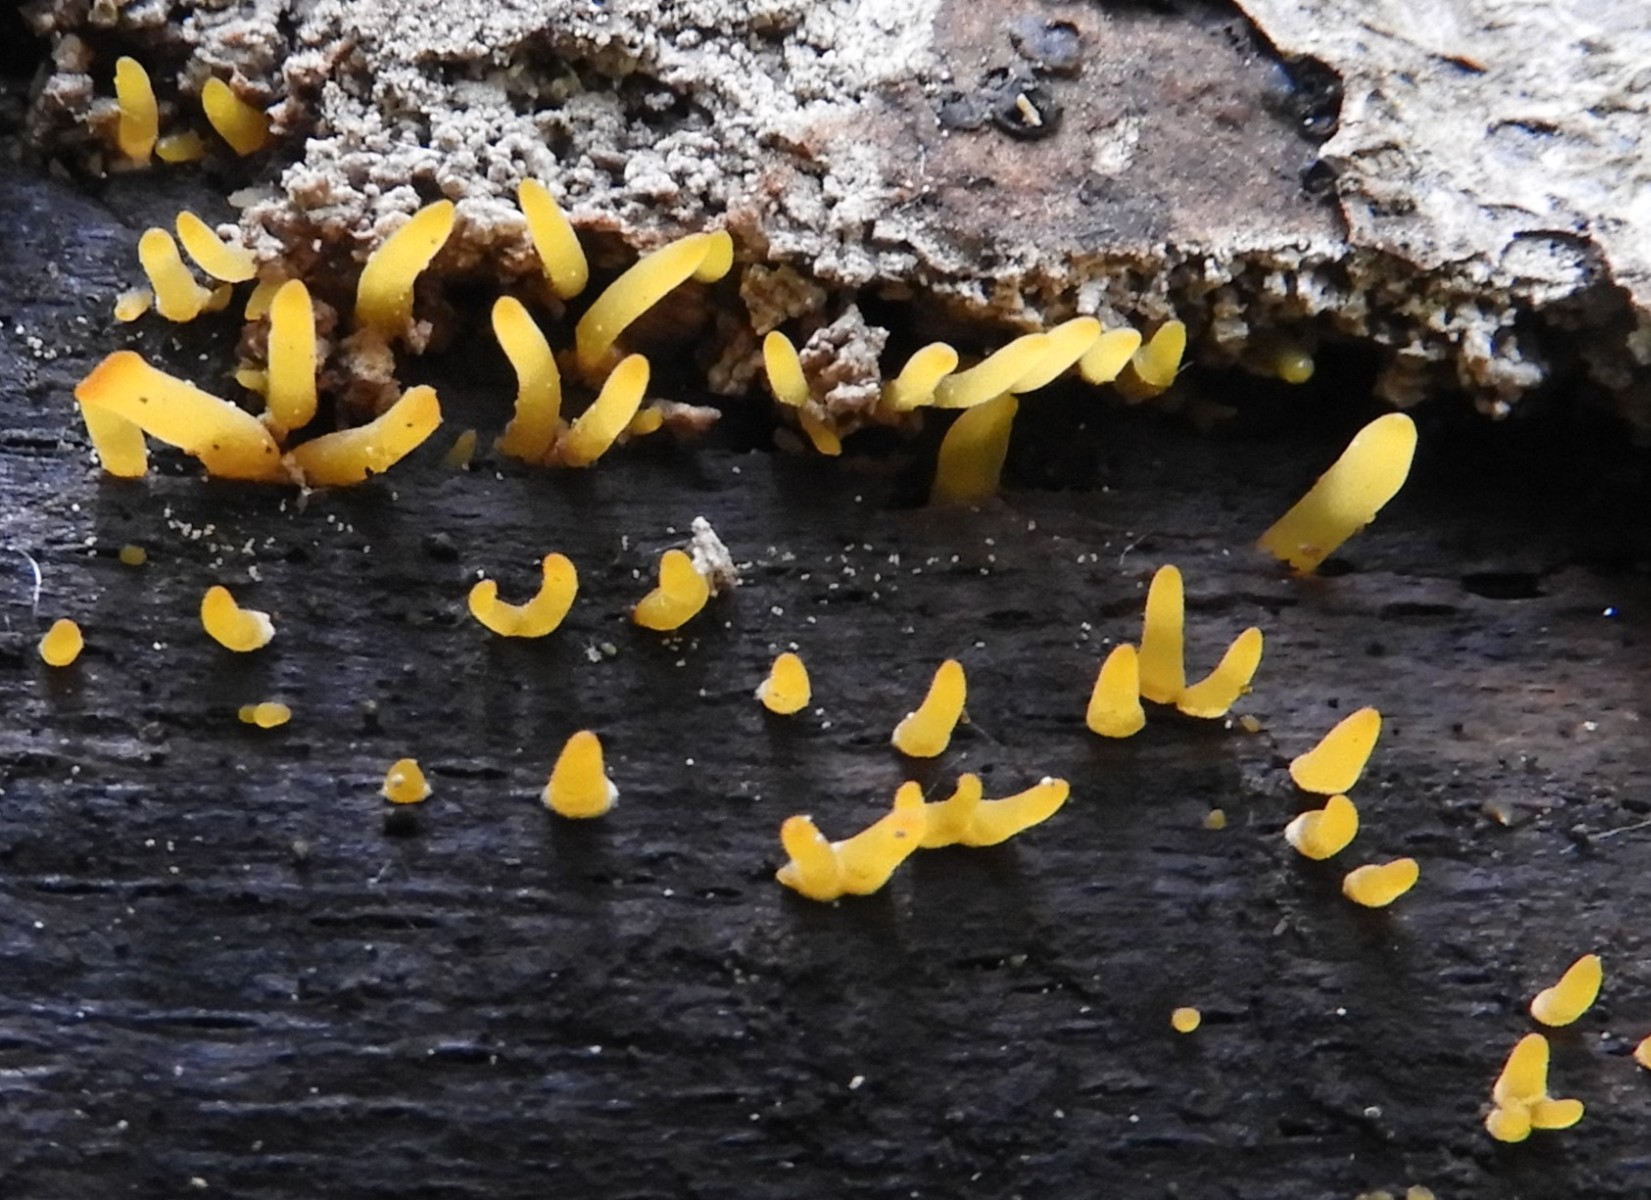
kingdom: Fungi
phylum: Basidiomycota
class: Dacrymycetes
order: Dacrymycetales
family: Dacrymycetaceae
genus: Calocera
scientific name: Calocera cornea
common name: liden guldgaffel
